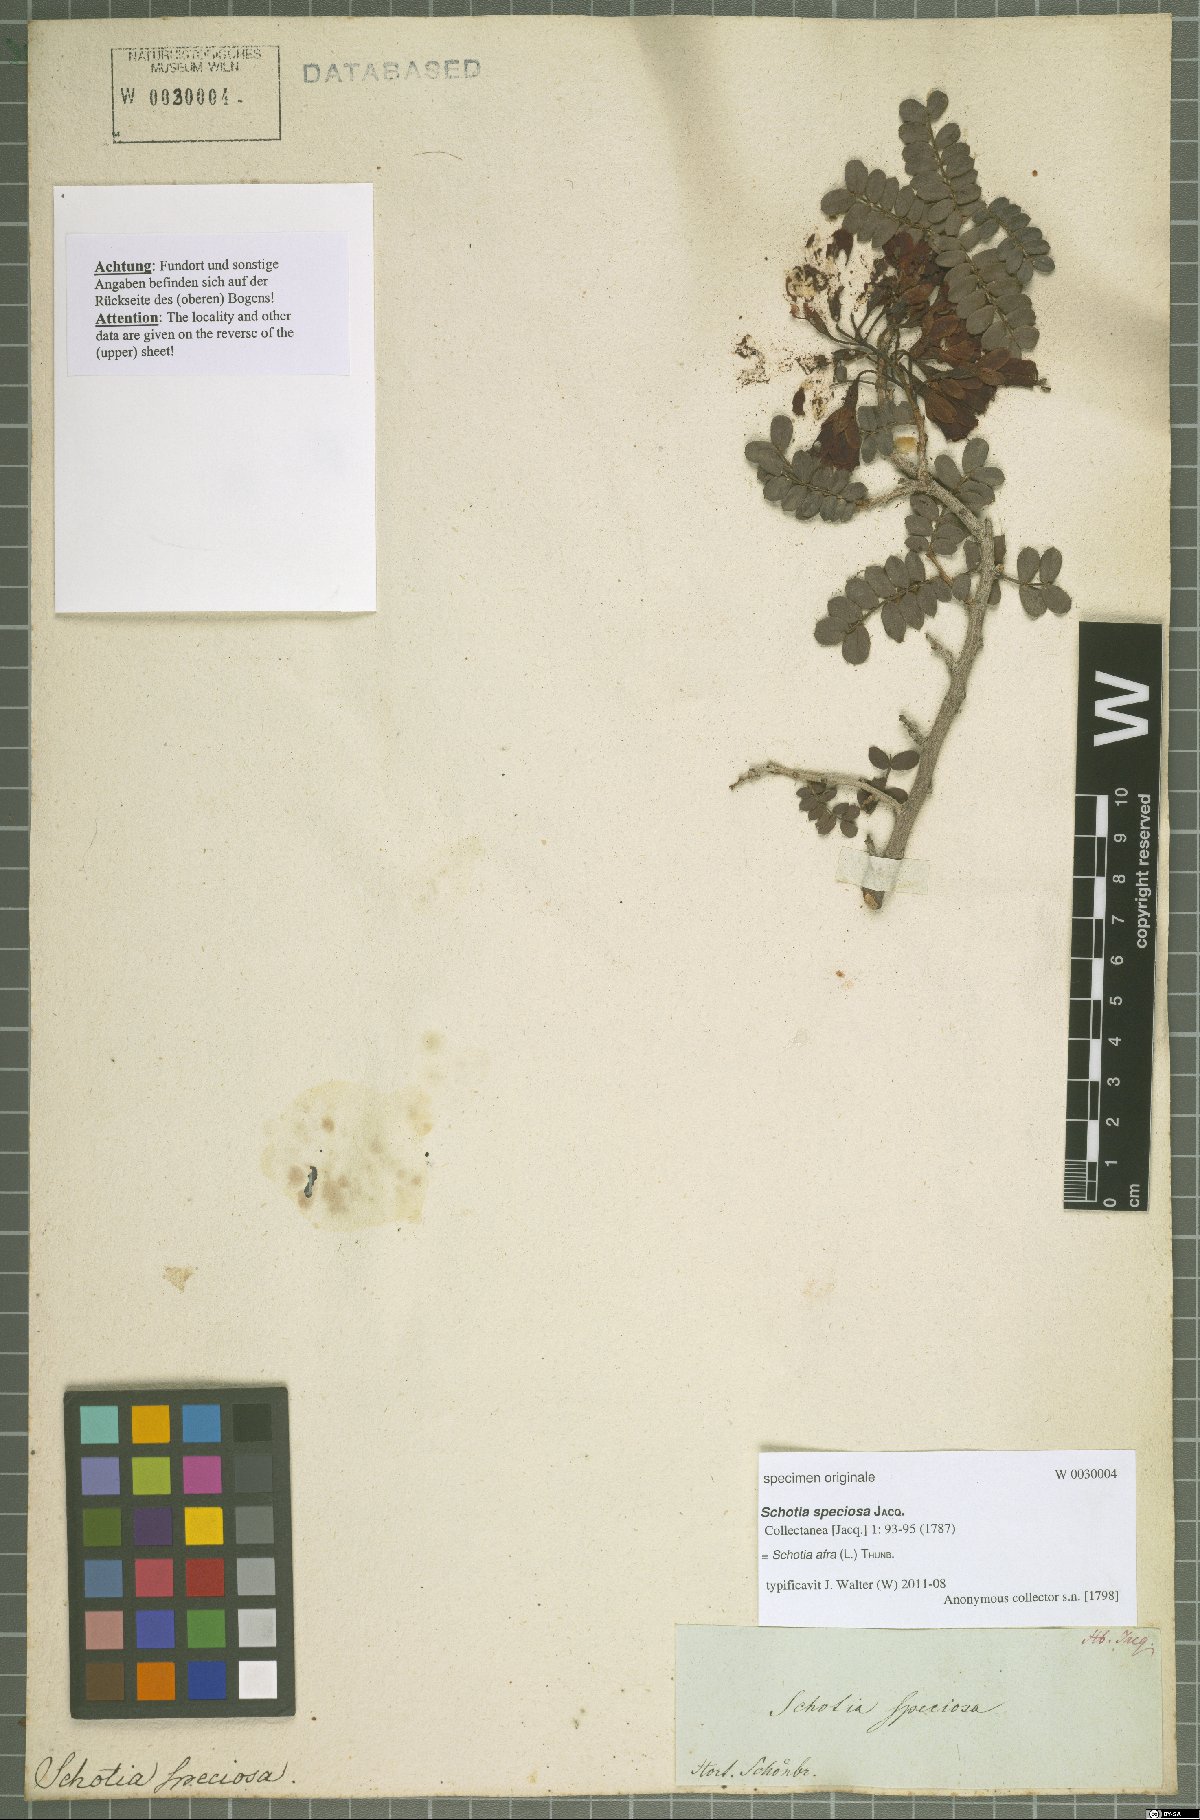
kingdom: Plantae
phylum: Tracheophyta
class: Magnoliopsida
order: Fabales
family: Fabaceae
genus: Schotia
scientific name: Schotia afra
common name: Hottentot's bean
